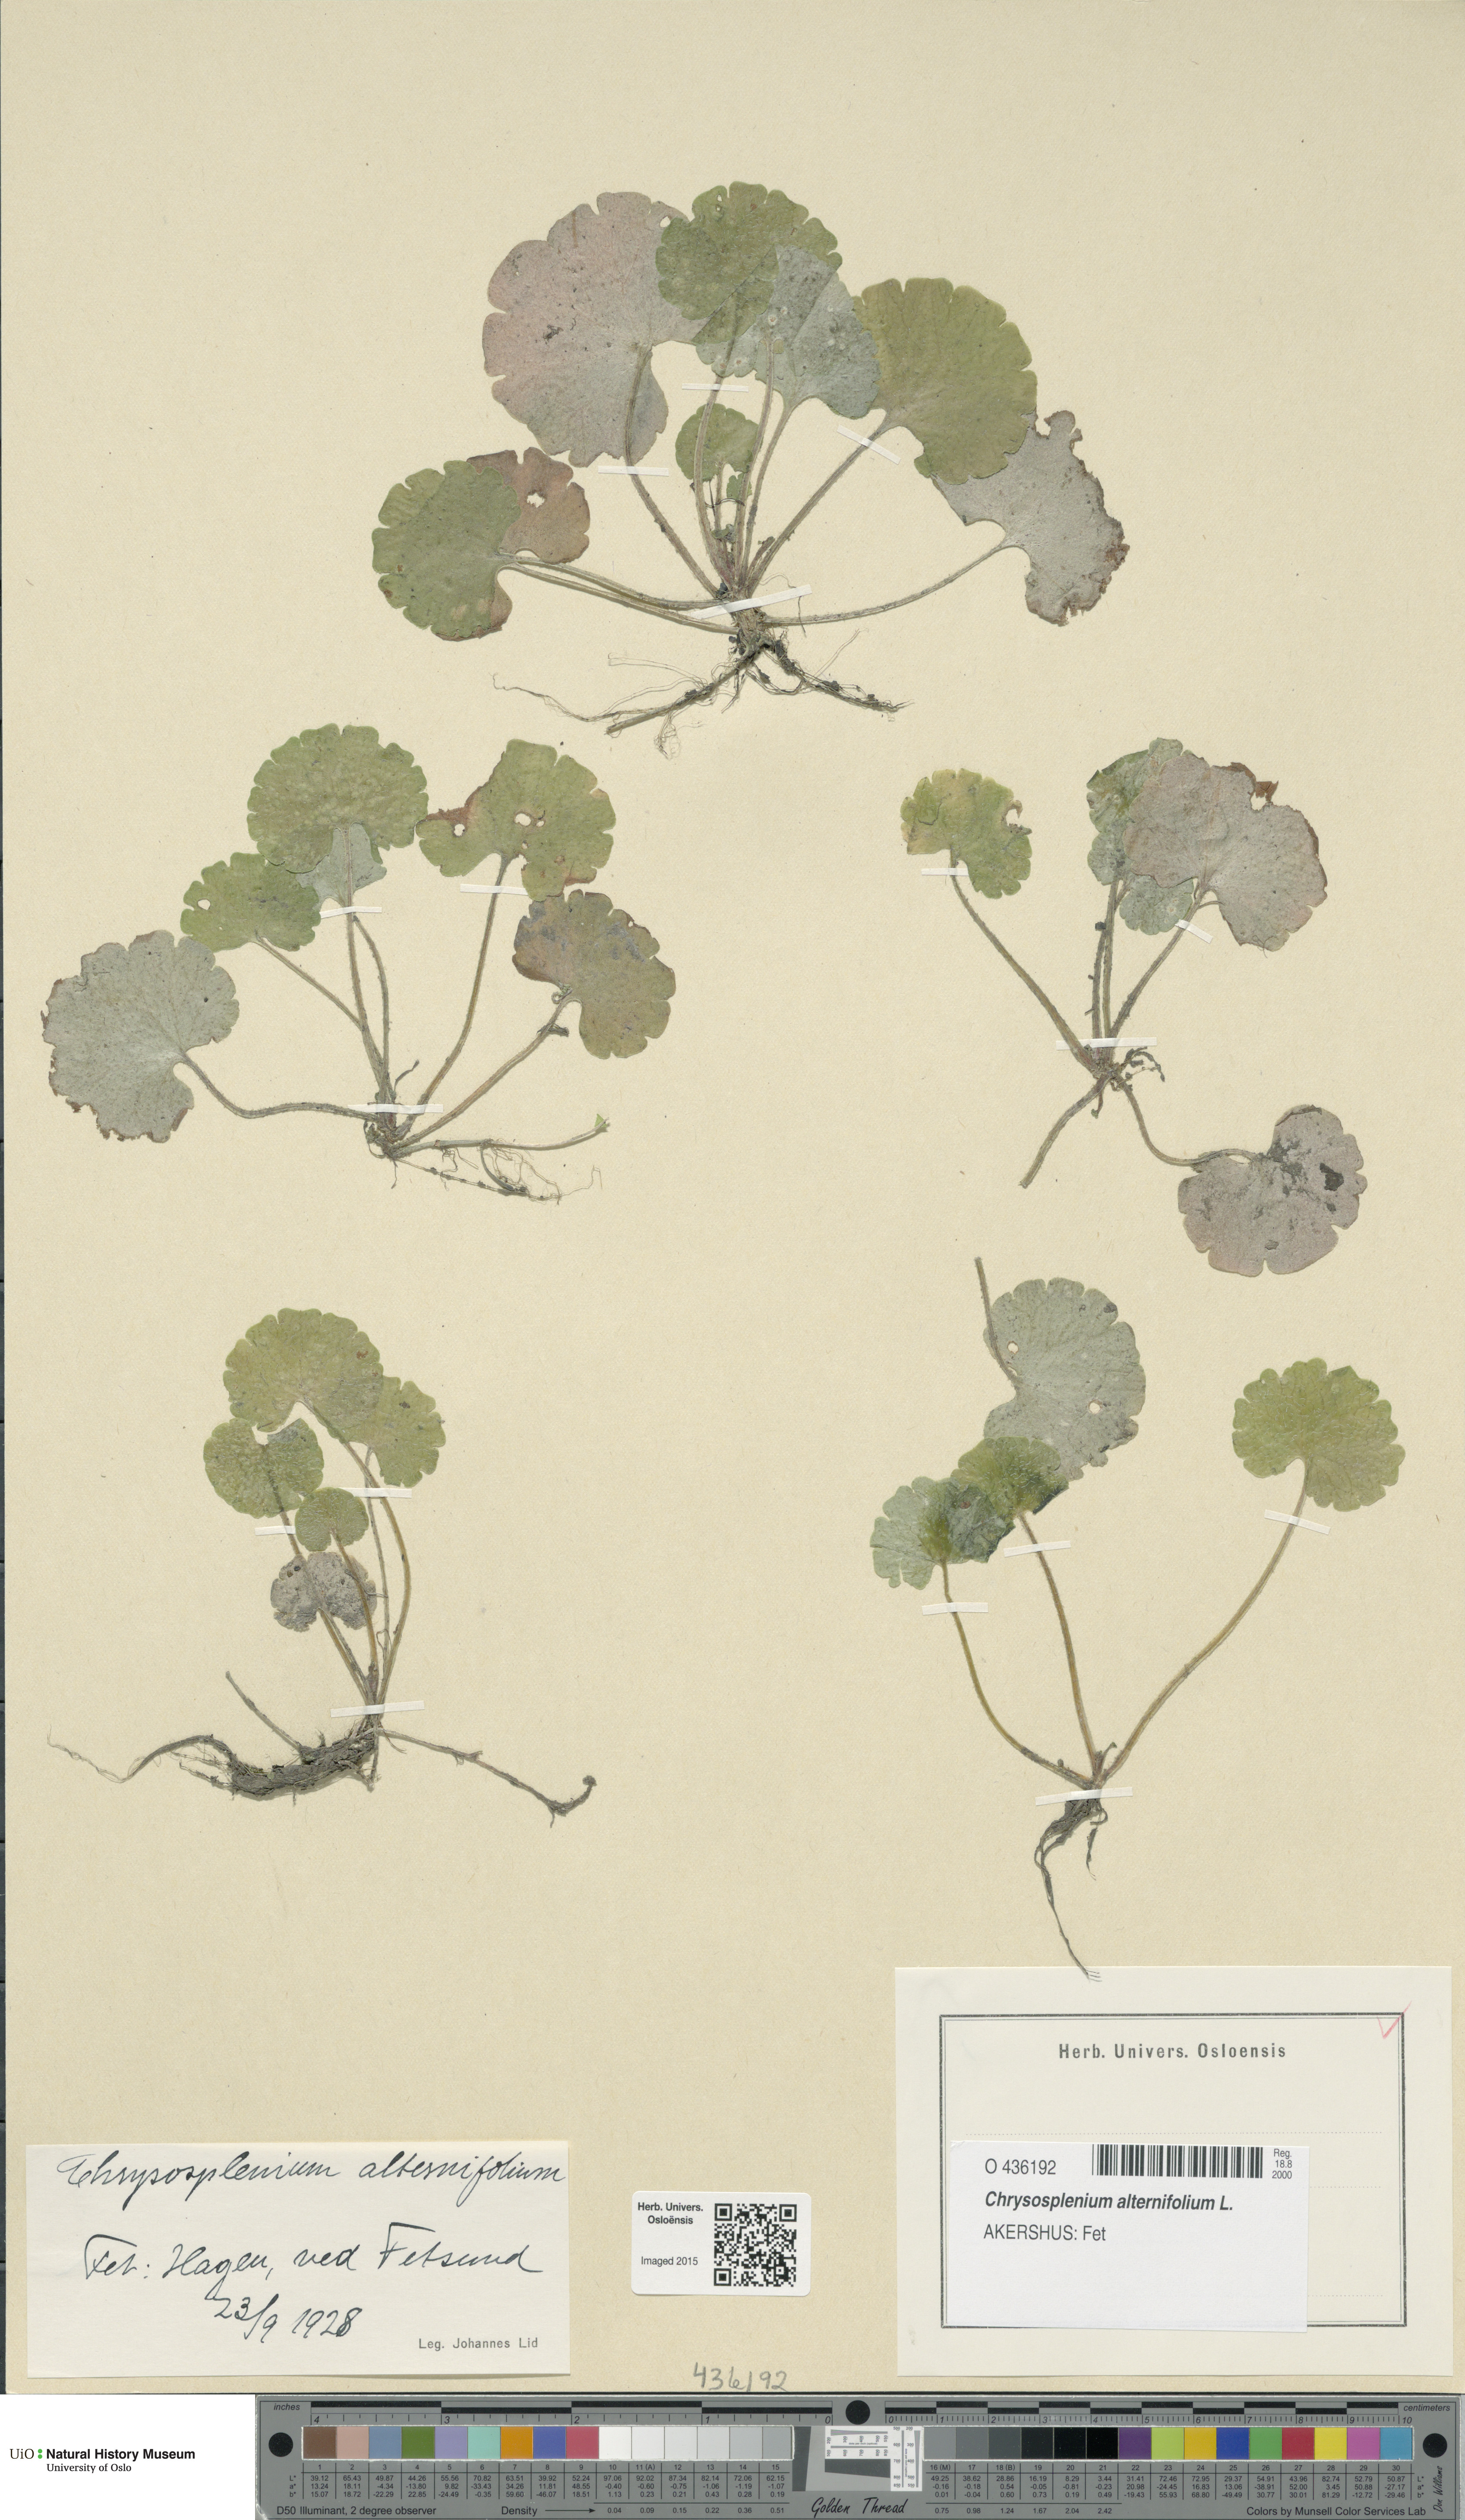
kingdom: Plantae
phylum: Tracheophyta
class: Magnoliopsida
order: Saxifragales
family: Saxifragaceae
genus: Chrysosplenium
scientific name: Chrysosplenium alternifolium
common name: Alternate-leaved golden-saxifrage
